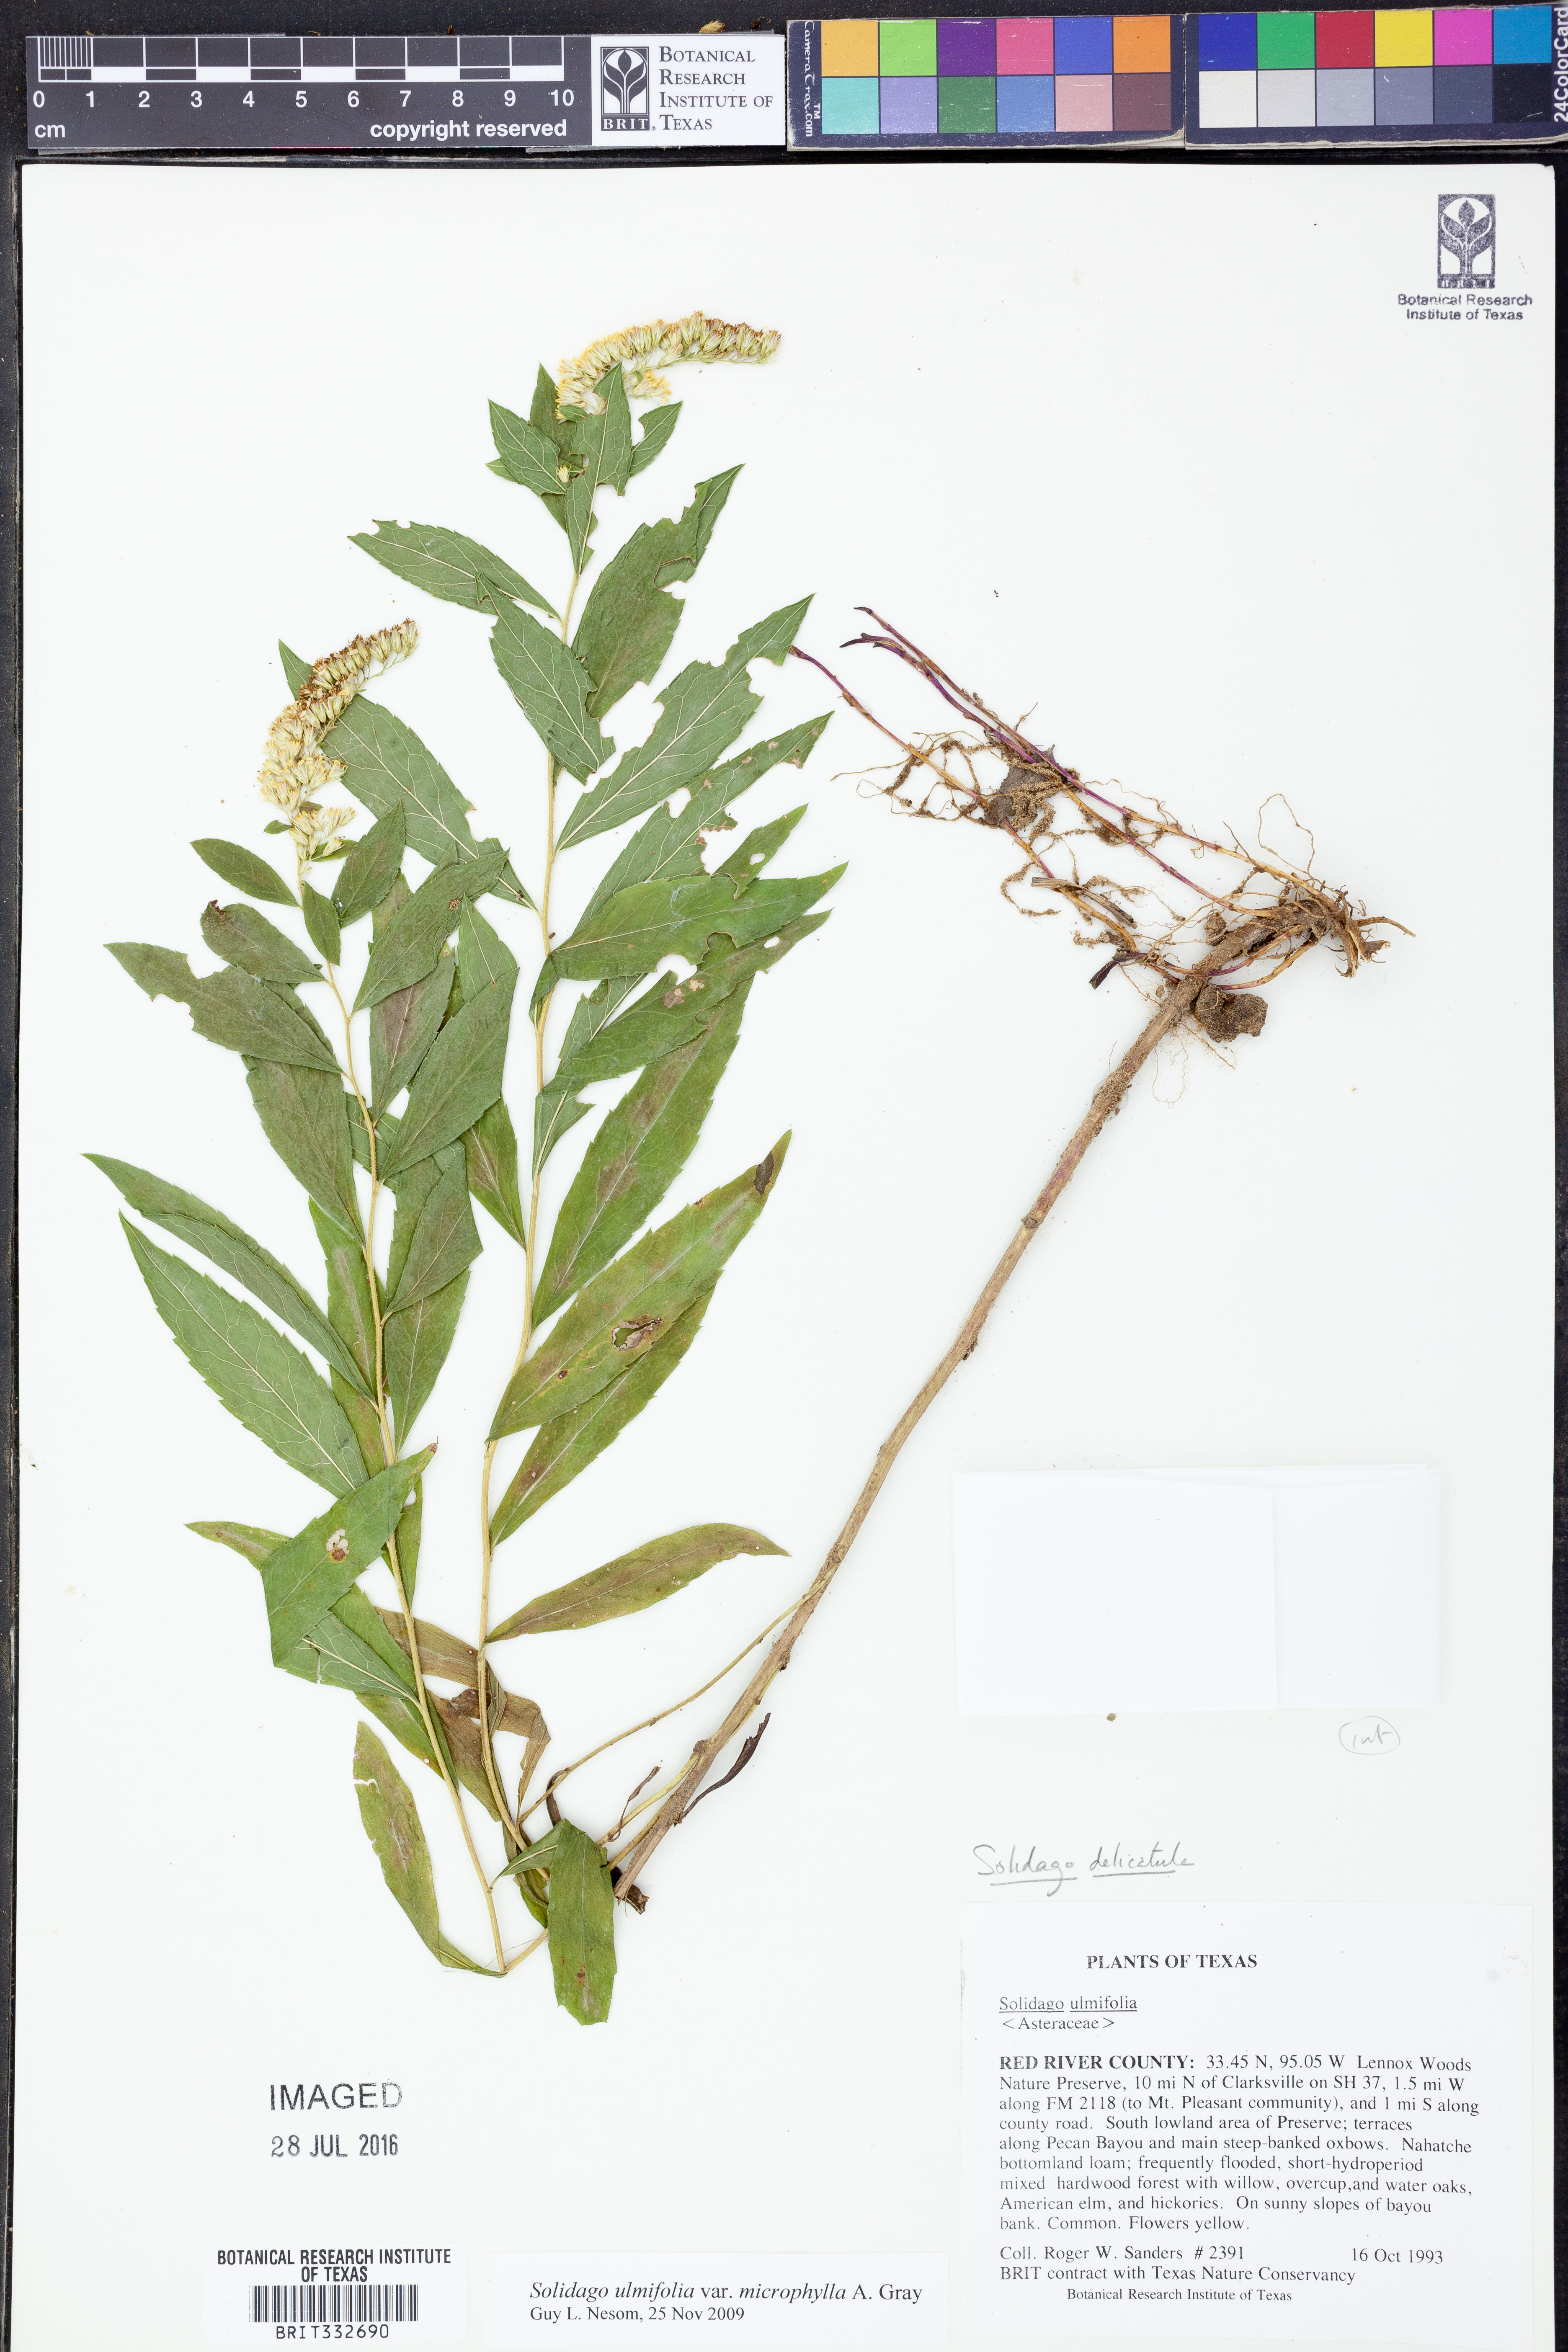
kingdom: Plantae
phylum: Tracheophyta
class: Magnoliopsida
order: Asterales
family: Asteraceae
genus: Solidago
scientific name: Solidago delicatula
